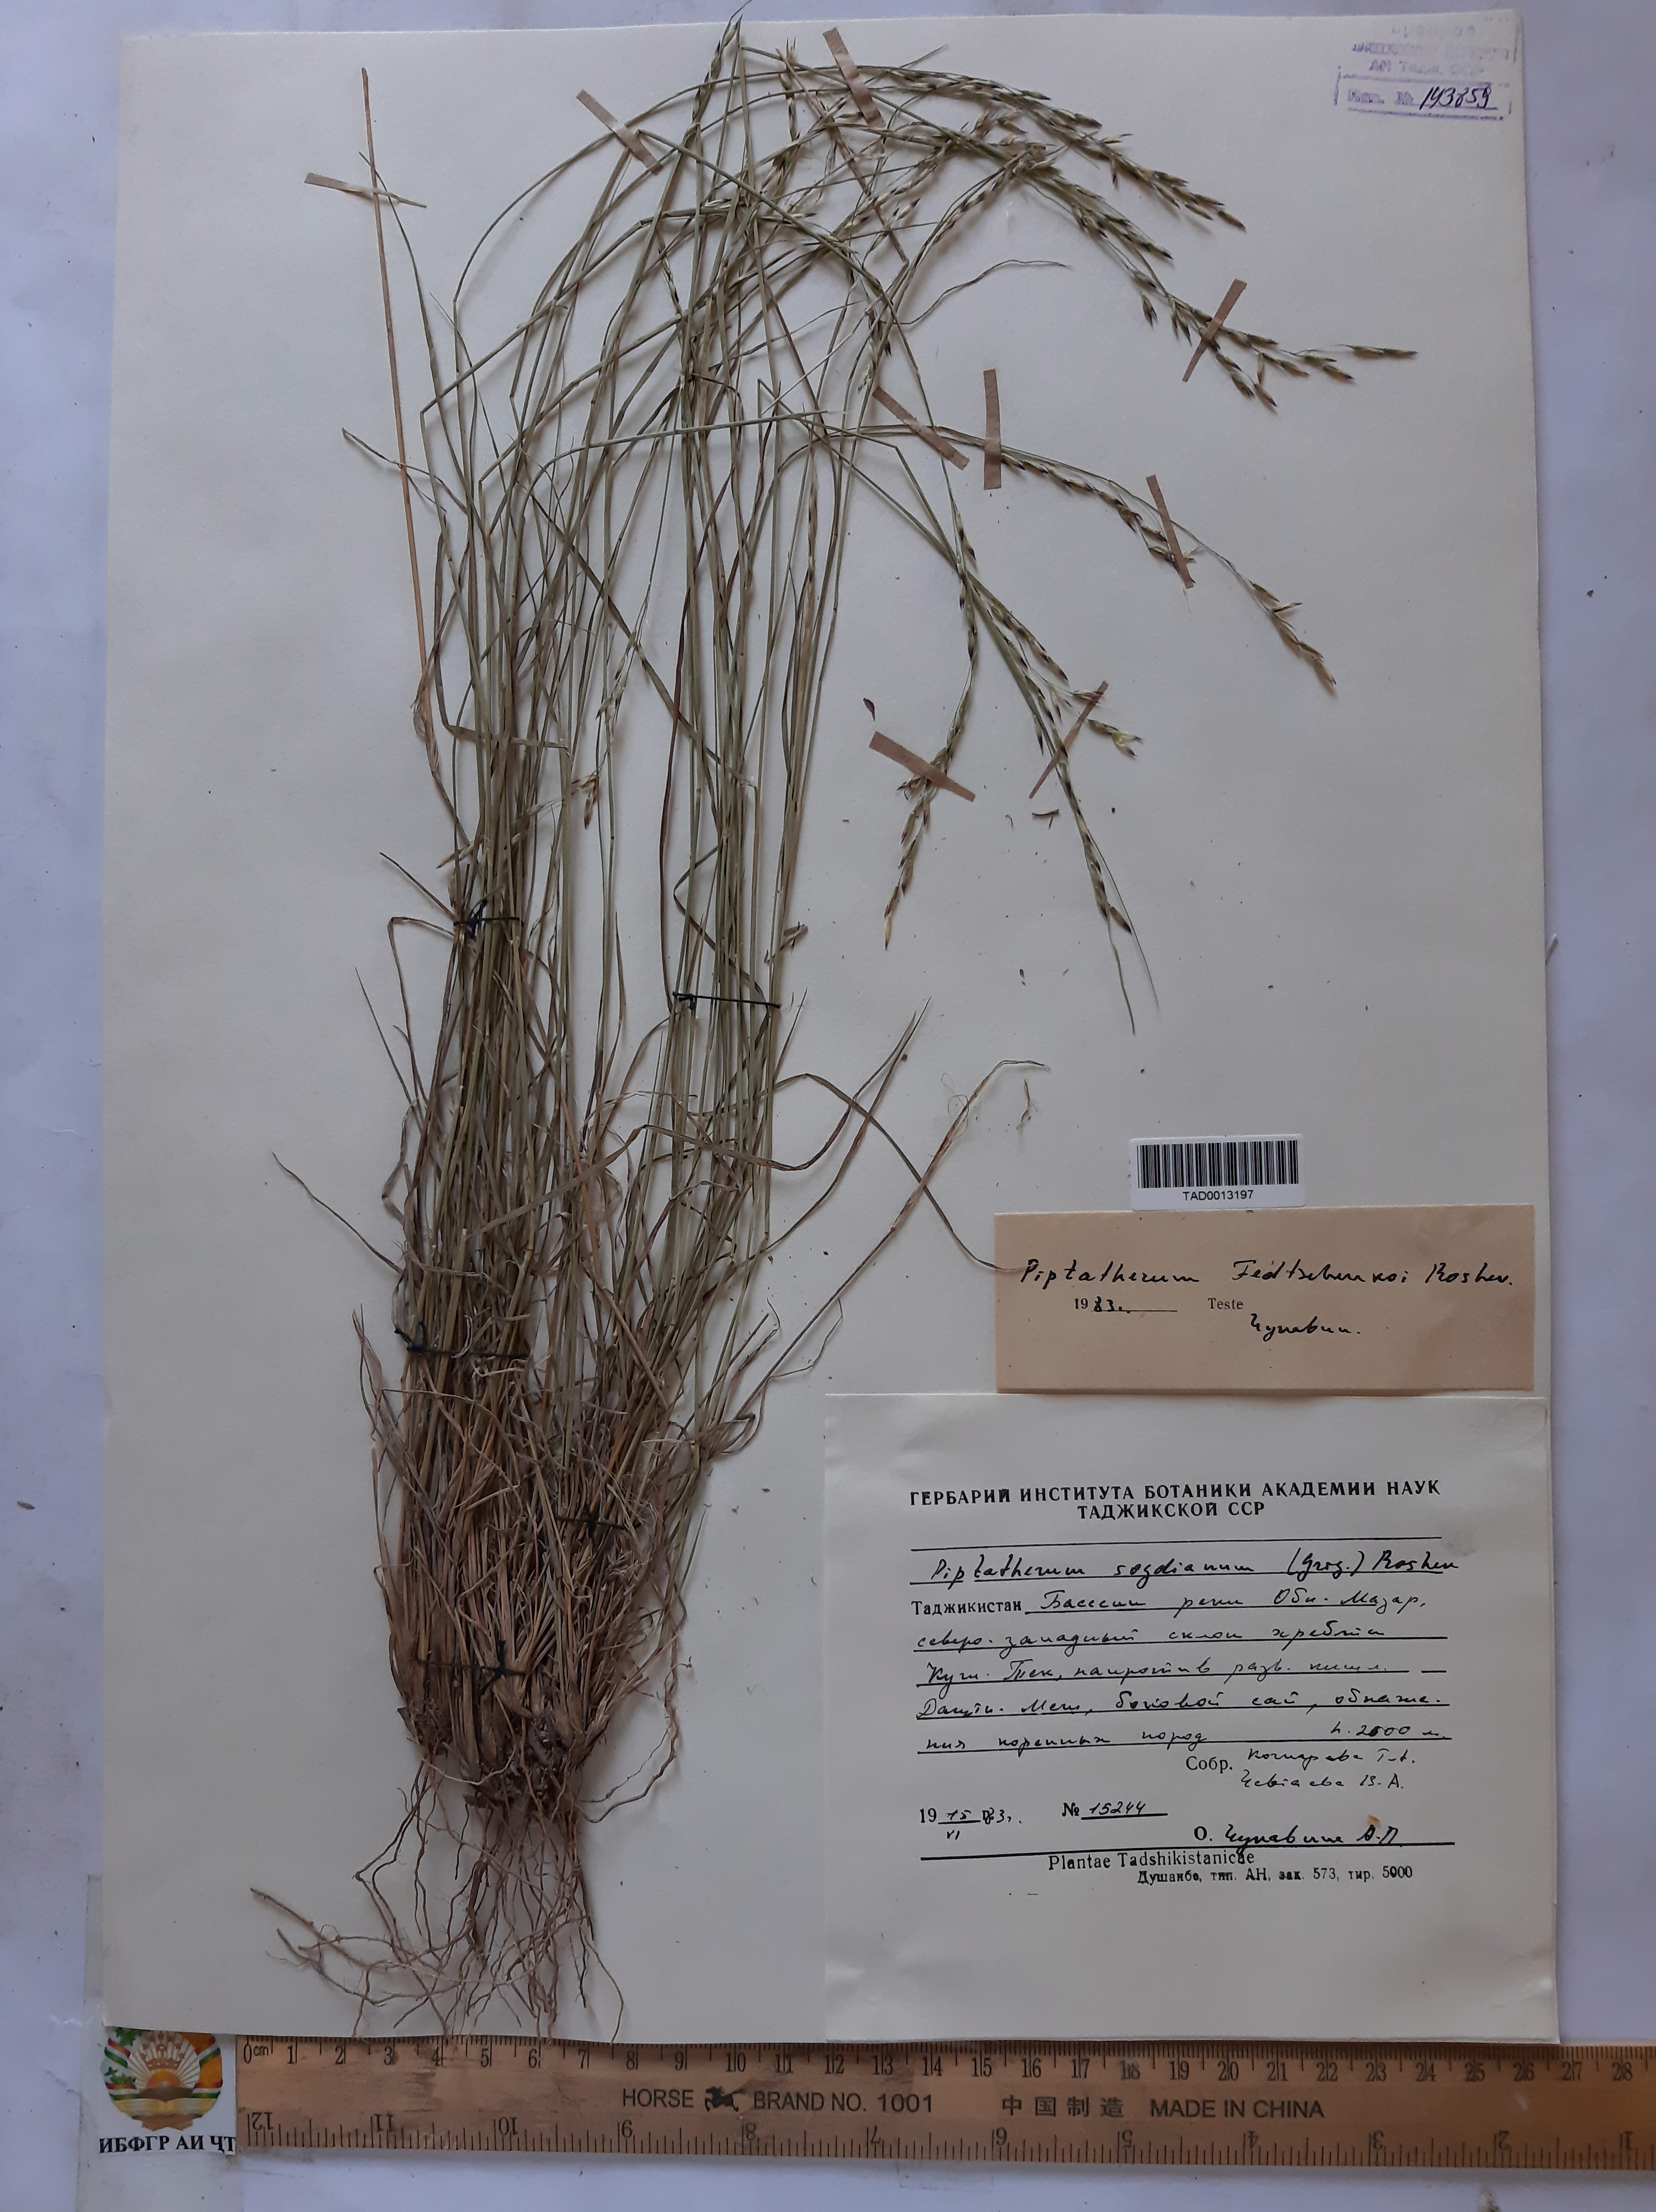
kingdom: Plantae
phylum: Tracheophyta
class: Liliopsida
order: Poales
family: Poaceae
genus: Piptatherum
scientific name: Piptatherum sogdianum
